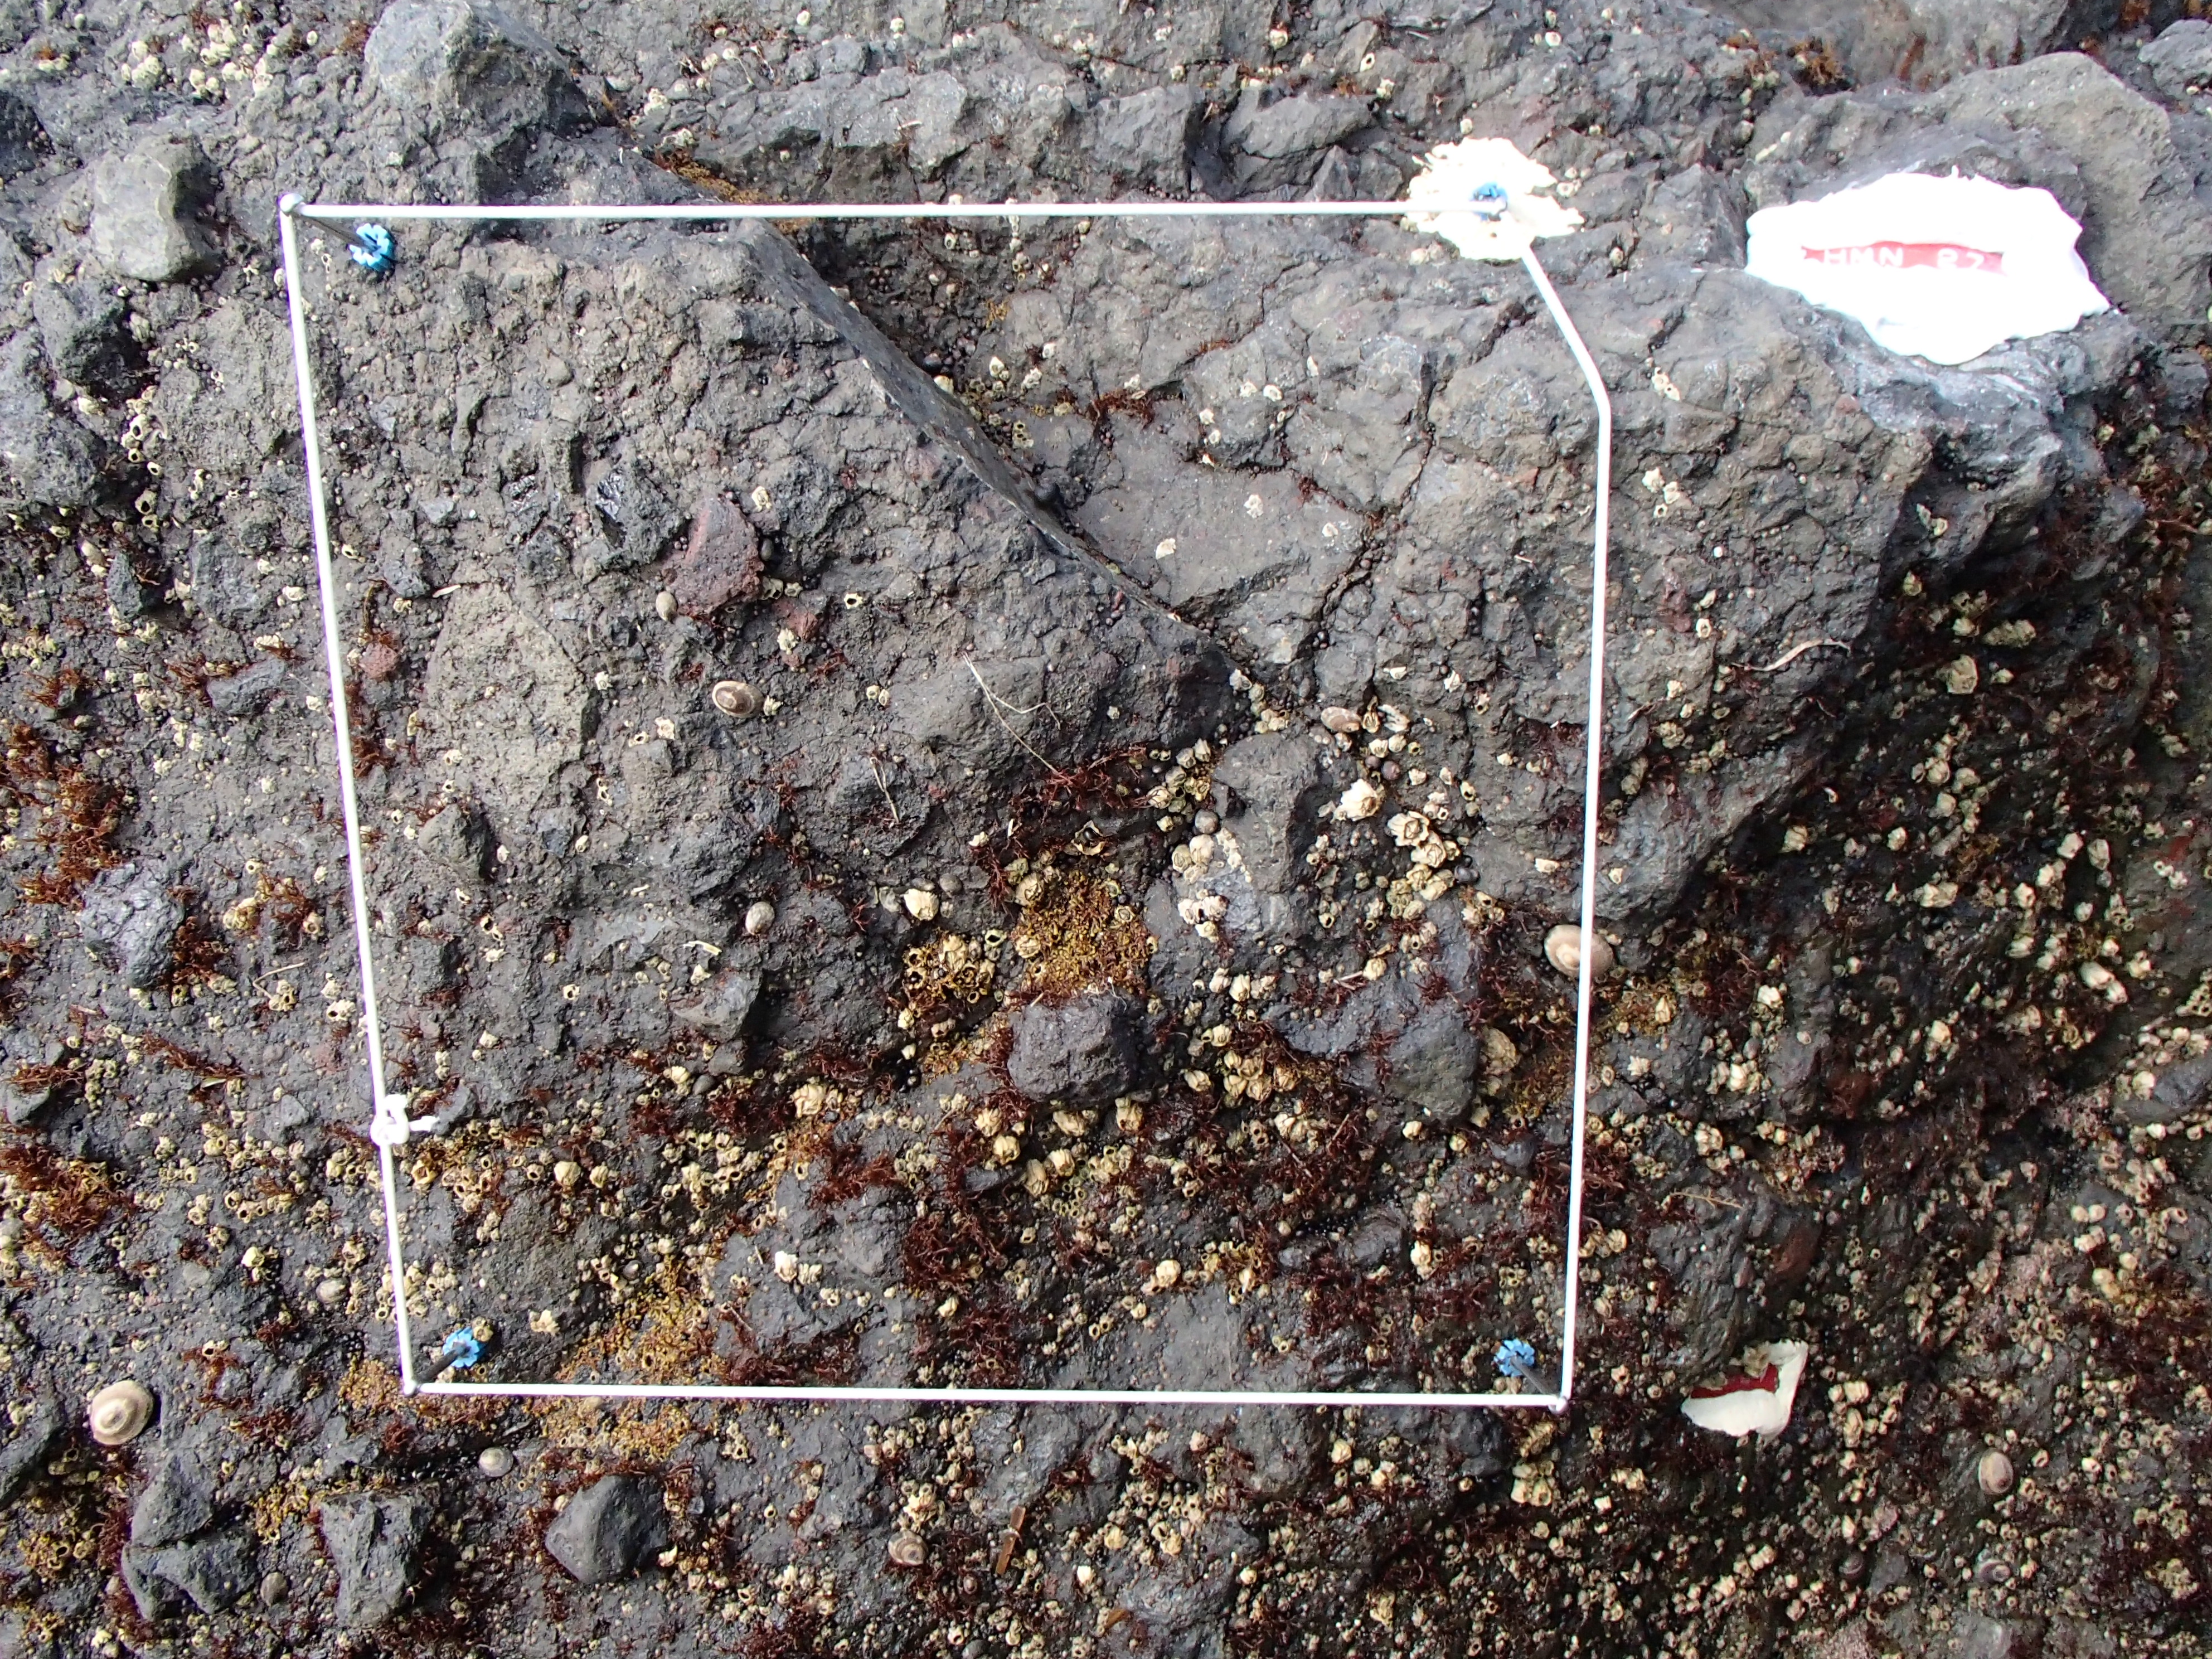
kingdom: Plantae
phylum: Rhodophyta
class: Florideophyceae
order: Gigartinales
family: Endocladiaceae
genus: Gloiopeltis
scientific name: Gloiopeltis furcata
